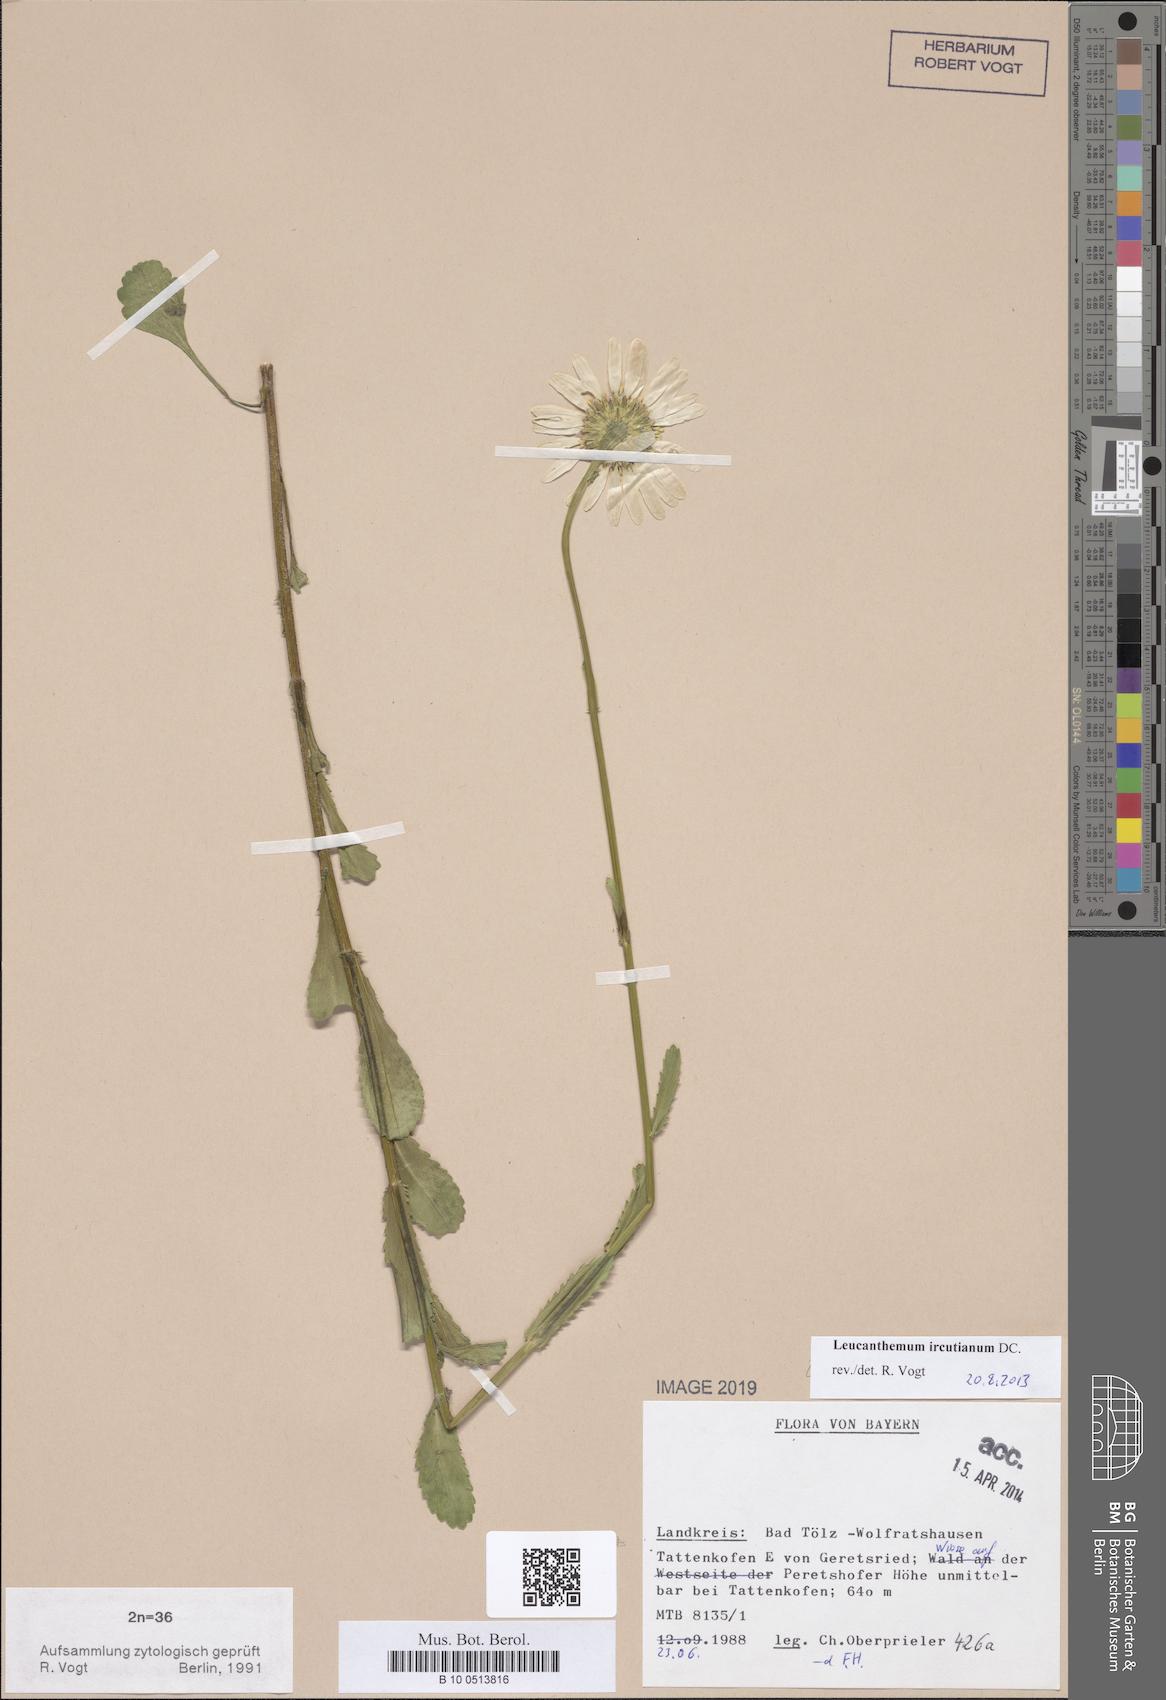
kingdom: Plantae
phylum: Tracheophyta
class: Magnoliopsida
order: Asterales
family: Asteraceae
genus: Leucanthemum
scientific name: Leucanthemum ircutianum
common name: Daisy
